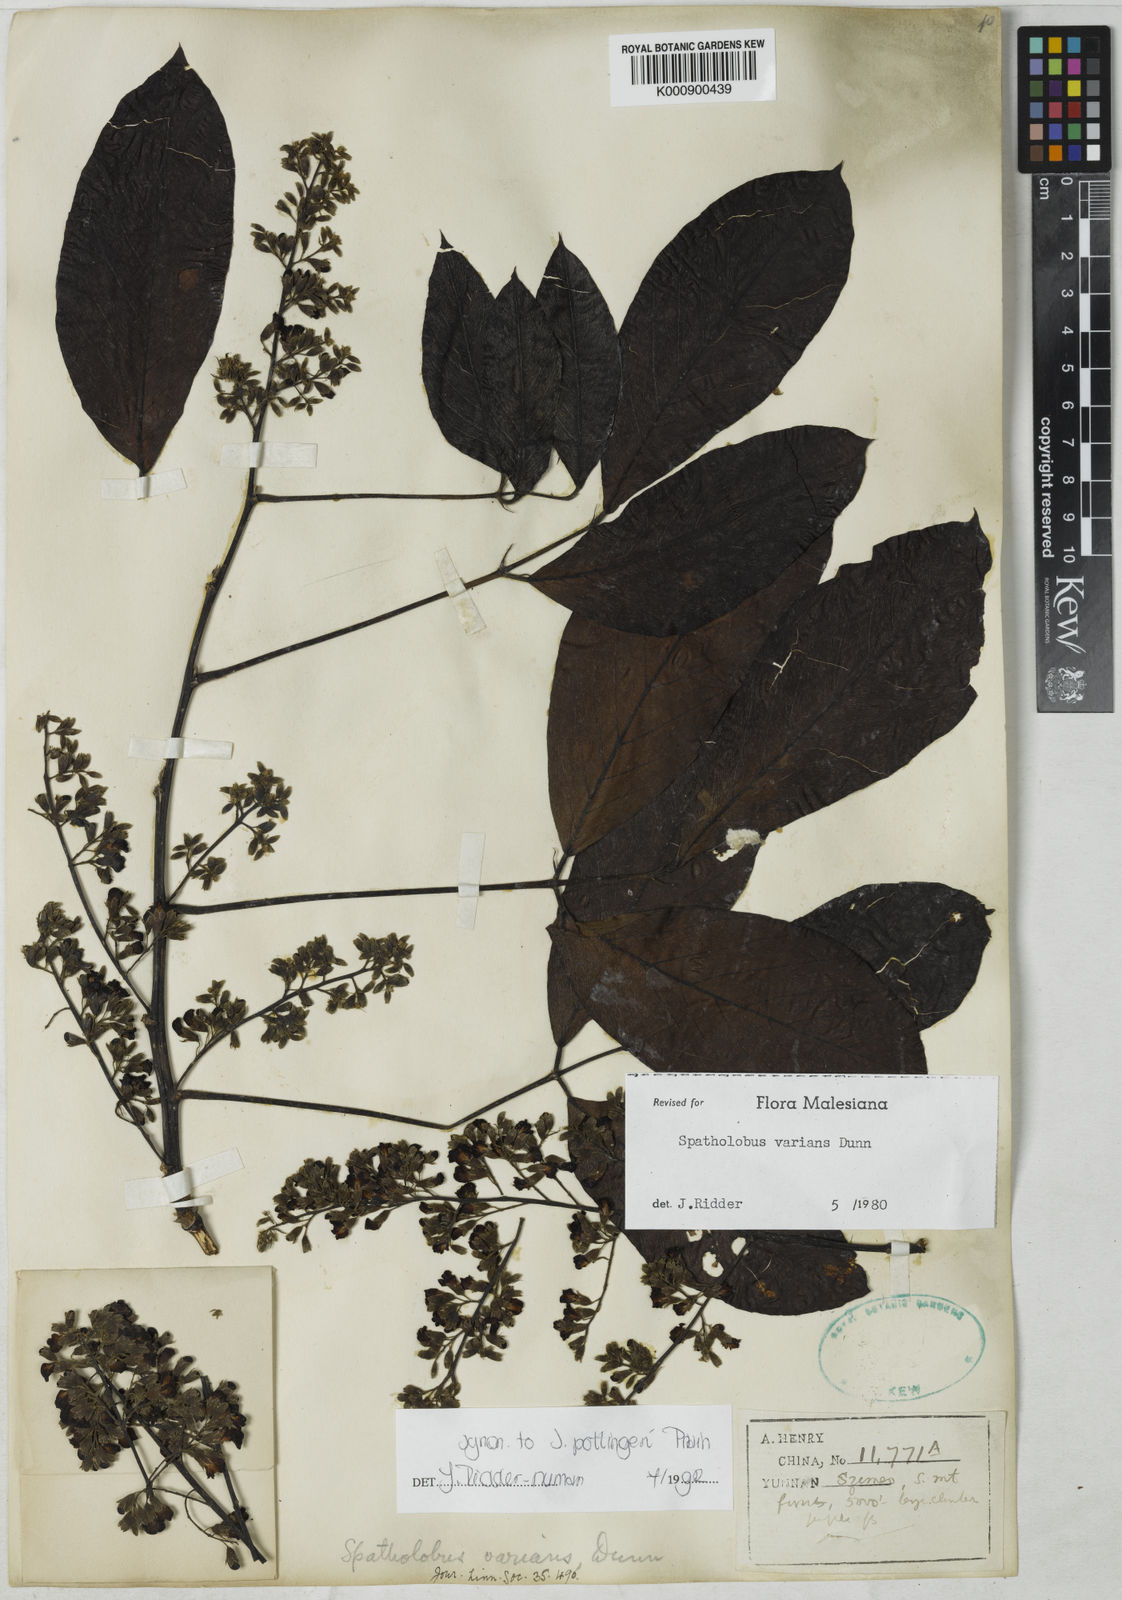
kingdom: Plantae
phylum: Tracheophyta
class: Magnoliopsida
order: Fabales
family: Fabaceae
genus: Spatholobus
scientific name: Spatholobus varians
